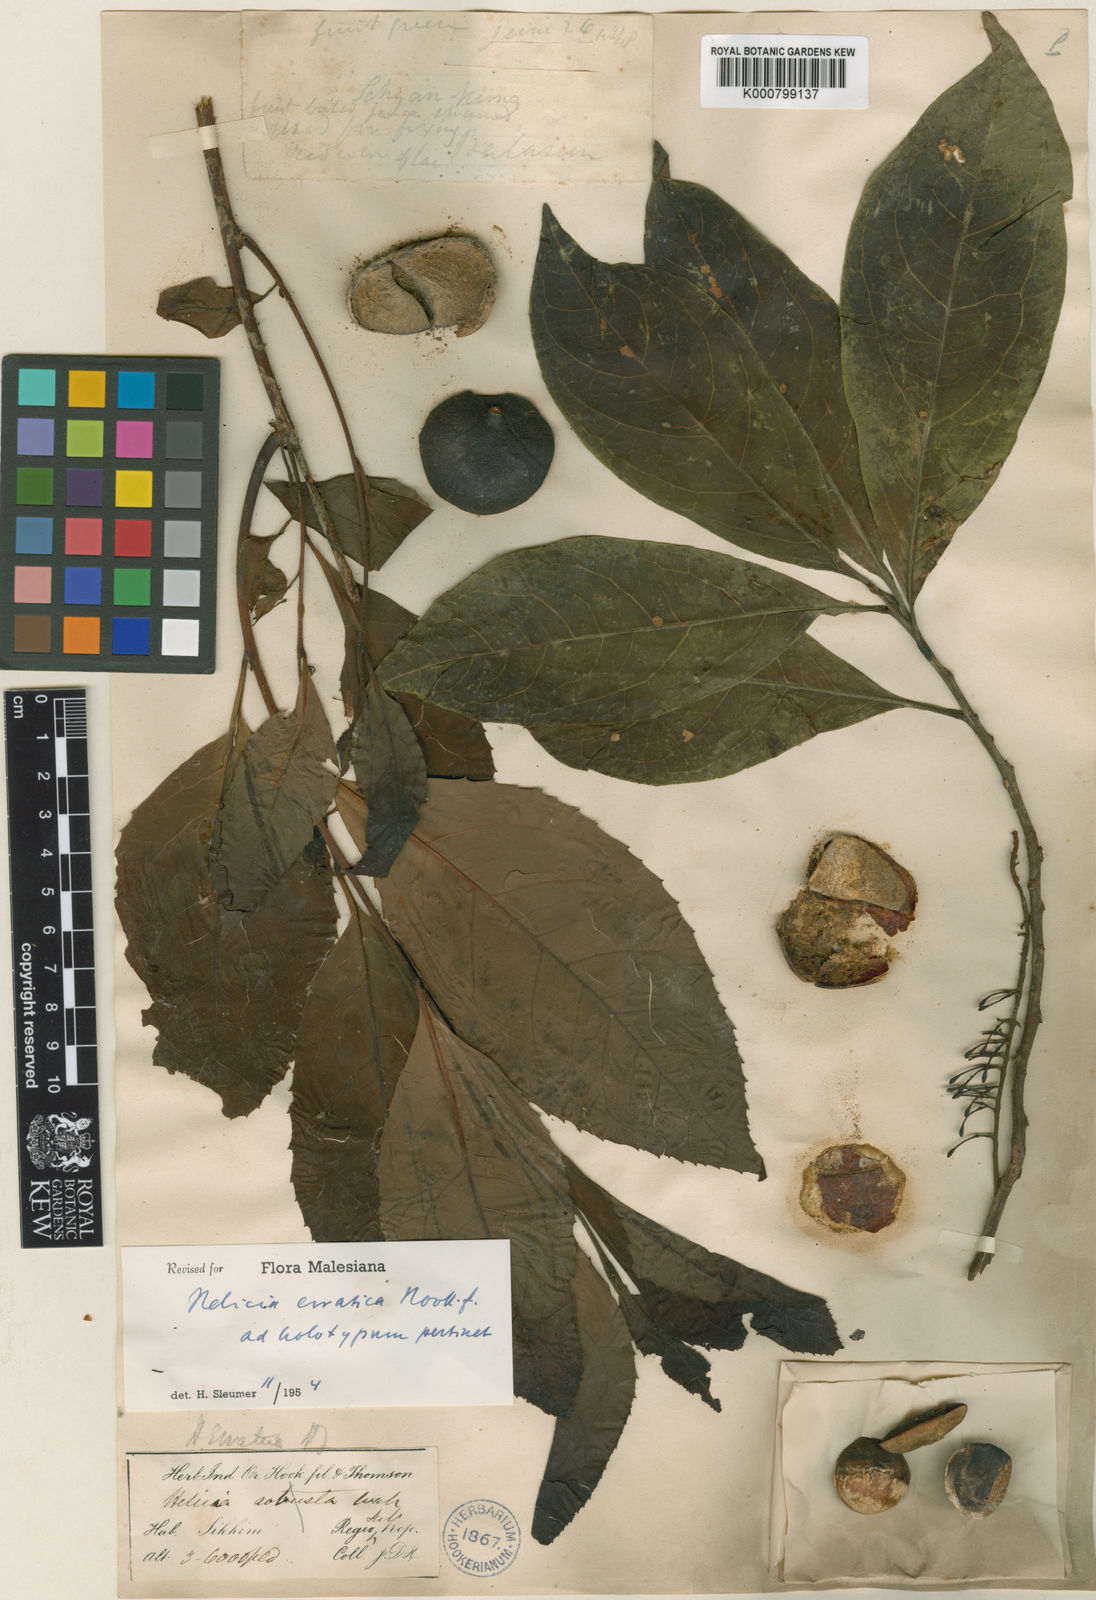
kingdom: Plantae
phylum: Tracheophyta
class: Magnoliopsida
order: Proteales
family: Proteaceae
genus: Helicia
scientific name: Helicia nilagirica
